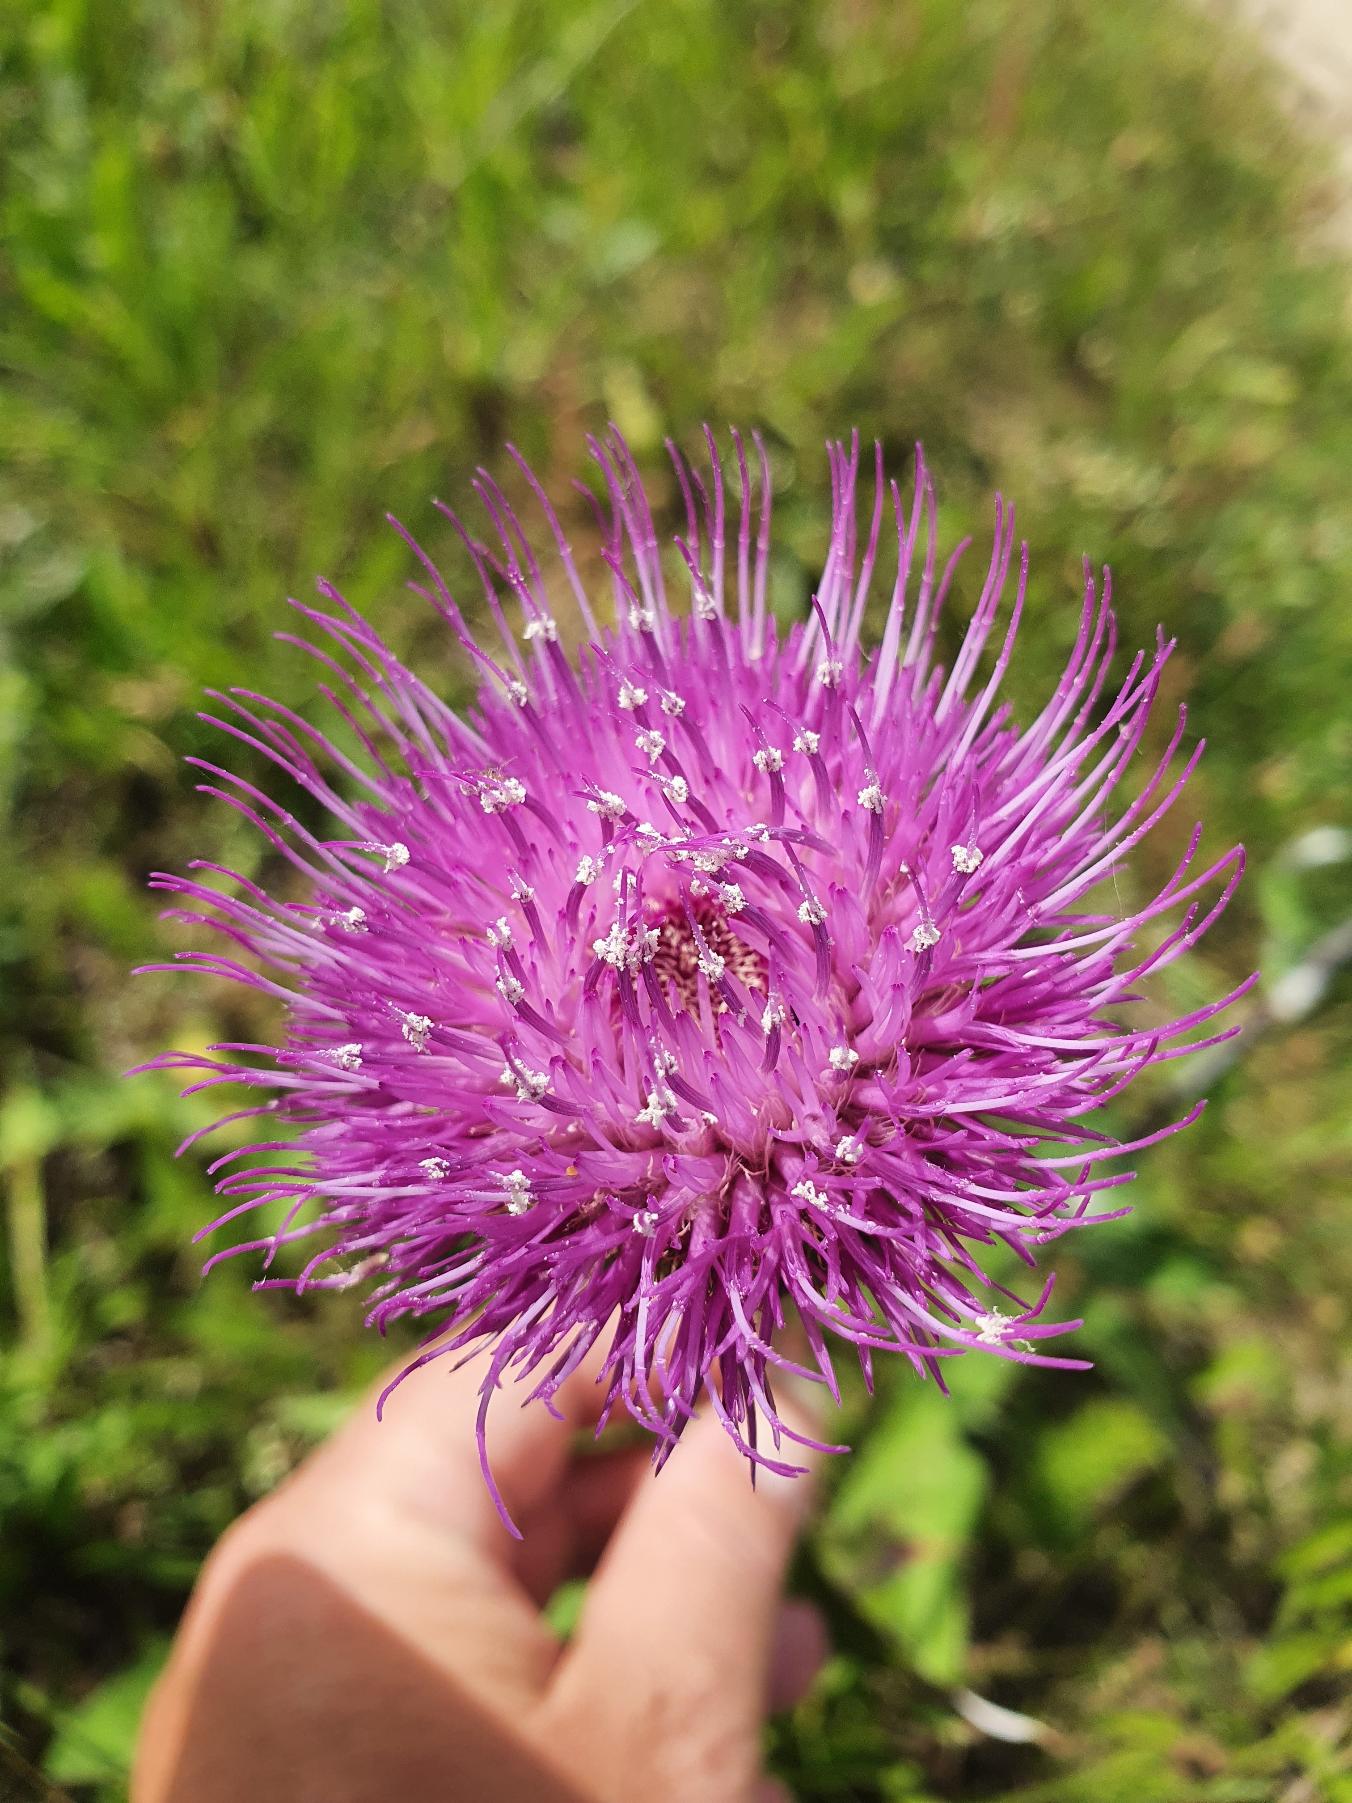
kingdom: Plantae
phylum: Tracheophyta
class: Magnoliopsida
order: Asterales
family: Asteraceae
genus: Cirsium
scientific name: Cirsium heterophyllum
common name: Forskelligbladet tidsel
